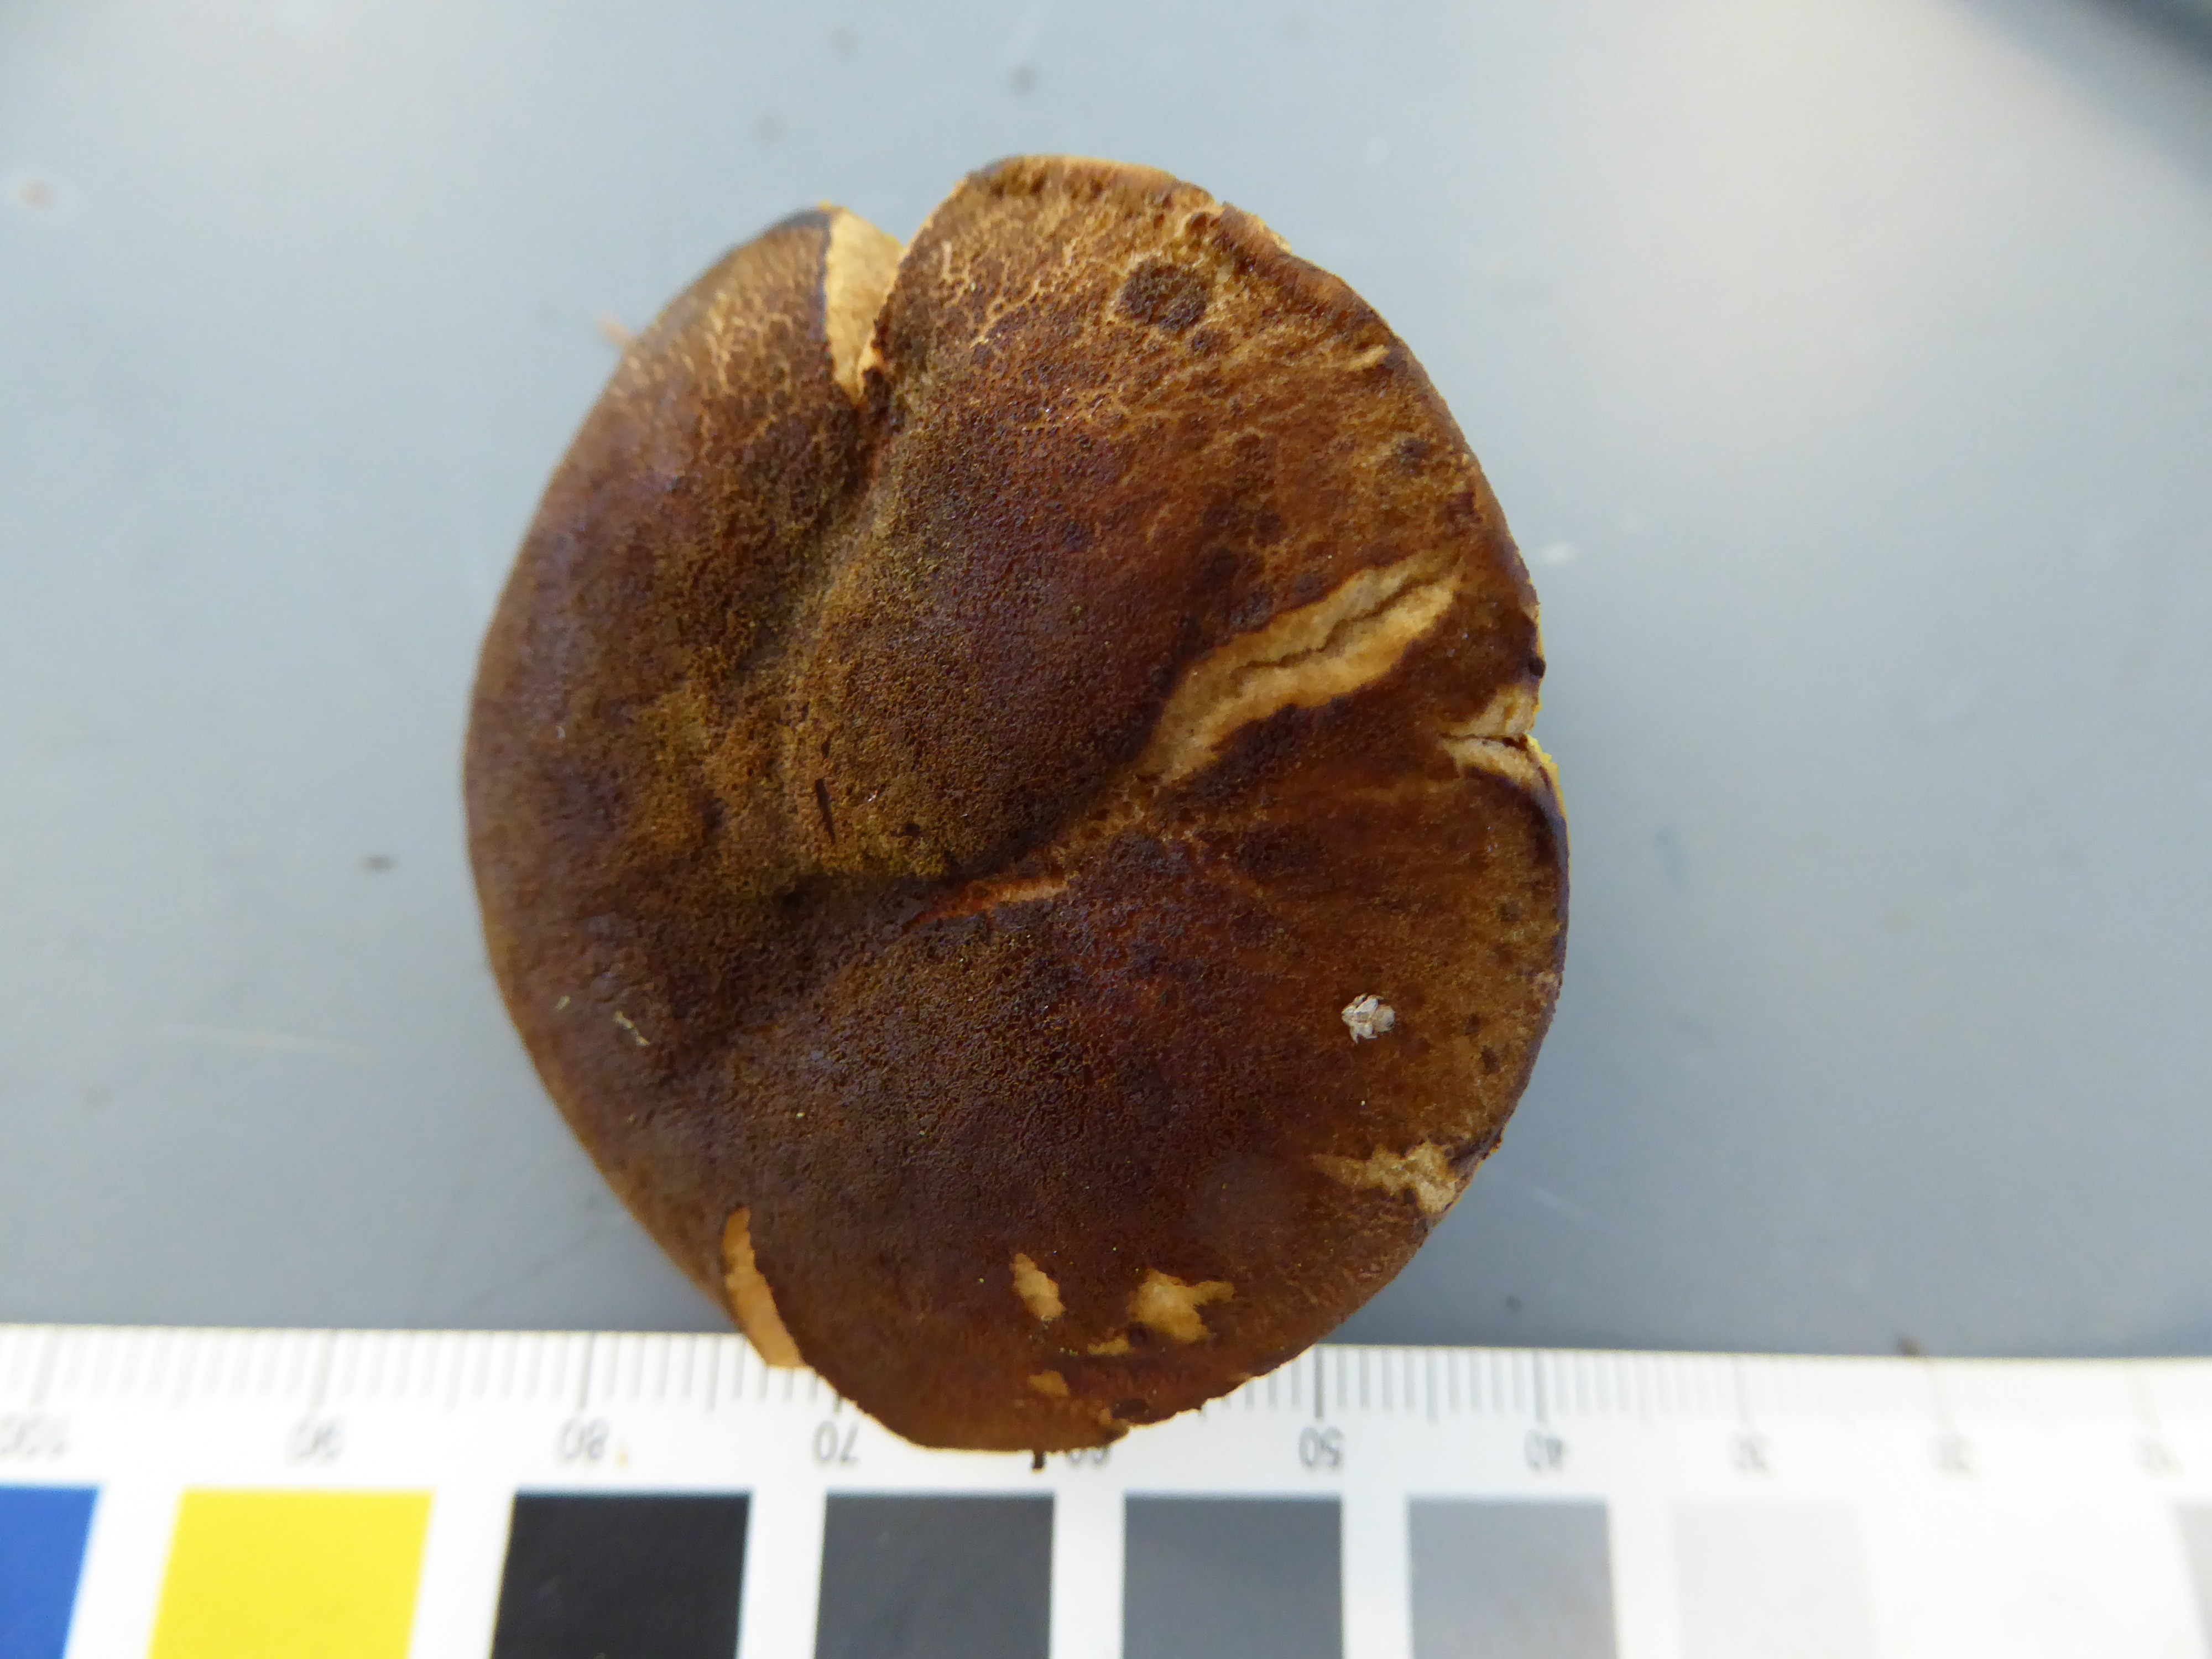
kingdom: Fungi
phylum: Basidiomycota
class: Agaricomycetes
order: Boletales
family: Boletaceae
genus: Xerocomus
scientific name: Xerocomus ferrugineus
